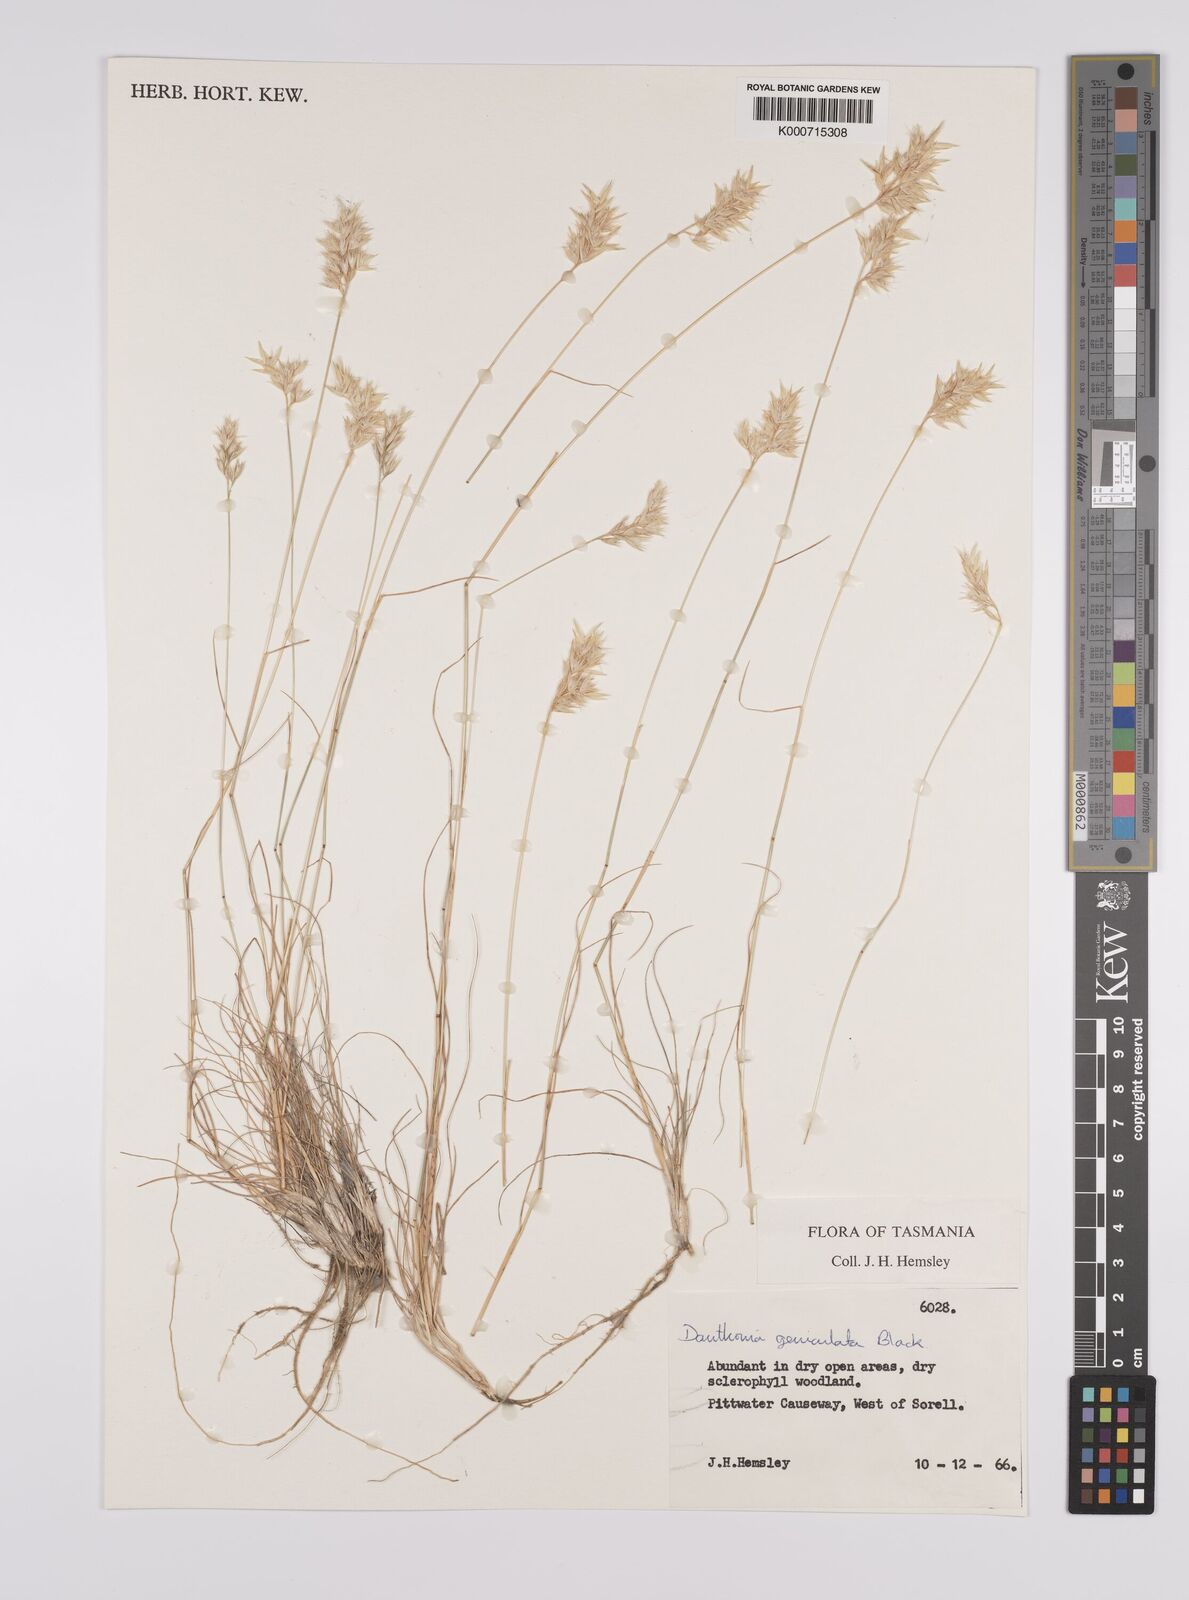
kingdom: Plantae
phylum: Tracheophyta
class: Liliopsida
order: Poales
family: Poaceae
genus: Rytidosperma
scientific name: Rytidosperma geniculatum
